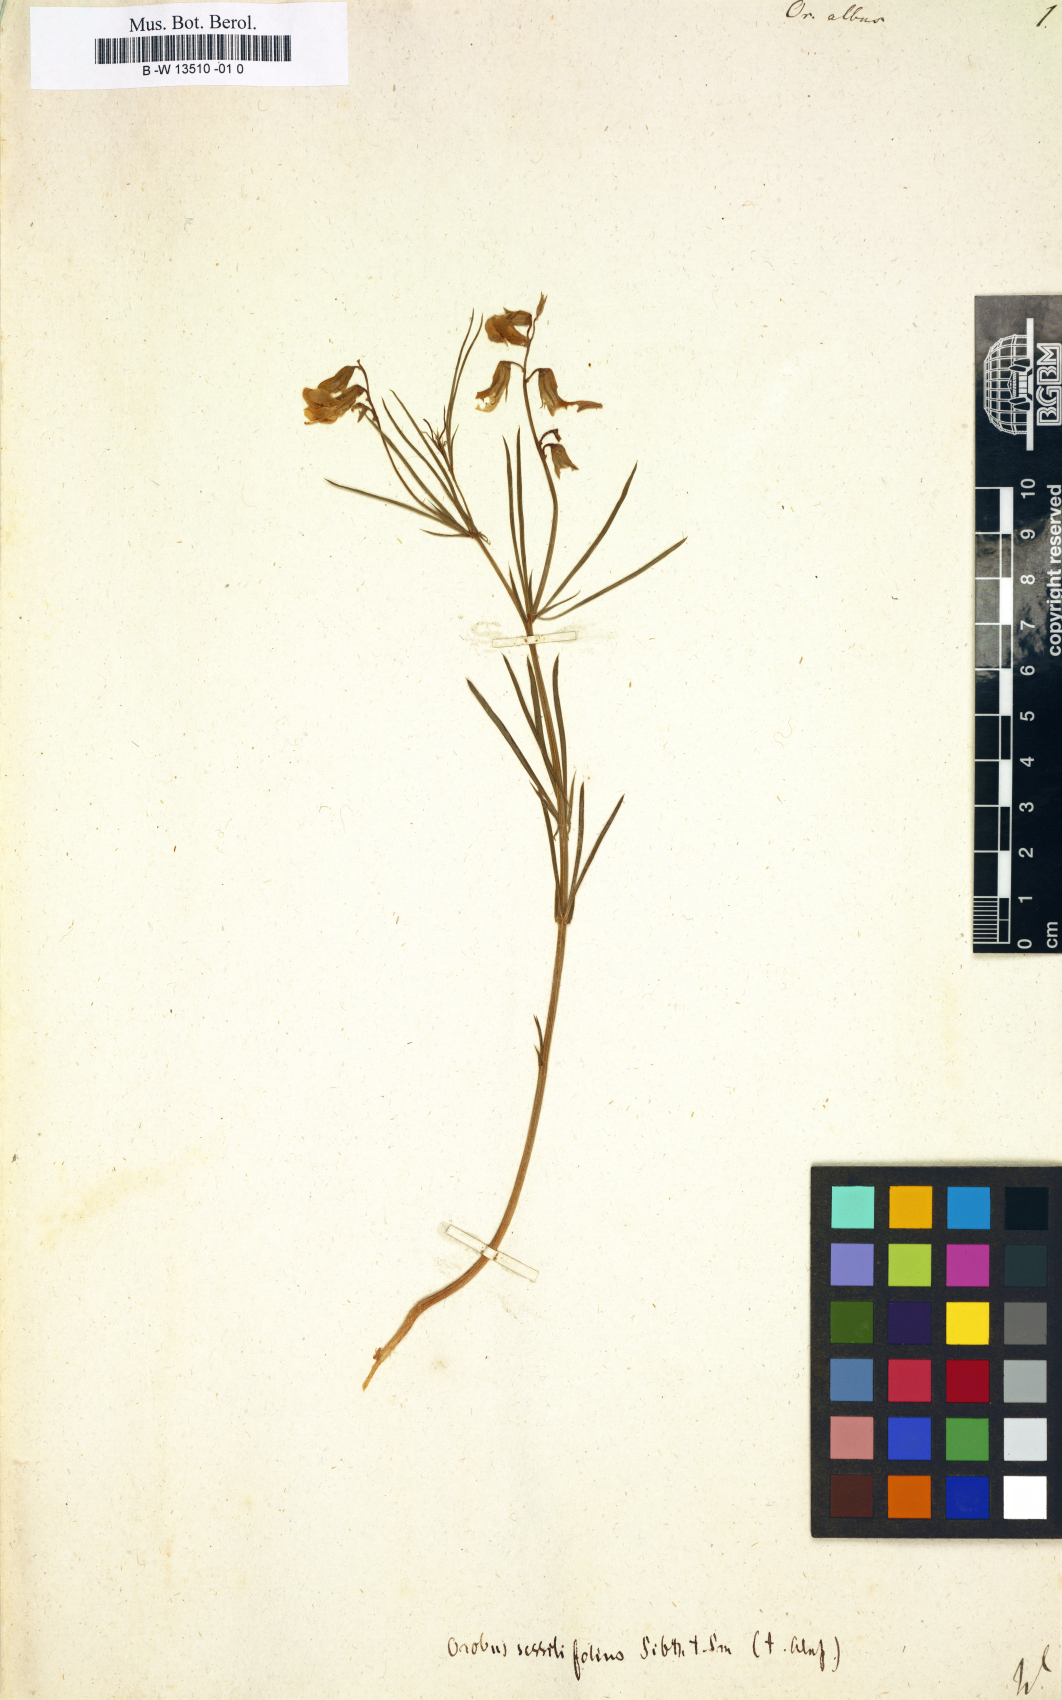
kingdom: Plantae
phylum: Tracheophyta
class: Magnoliopsida
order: Fabales
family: Fabaceae
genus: Lathyrus
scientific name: Lathyrus pannonicus
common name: Pea
